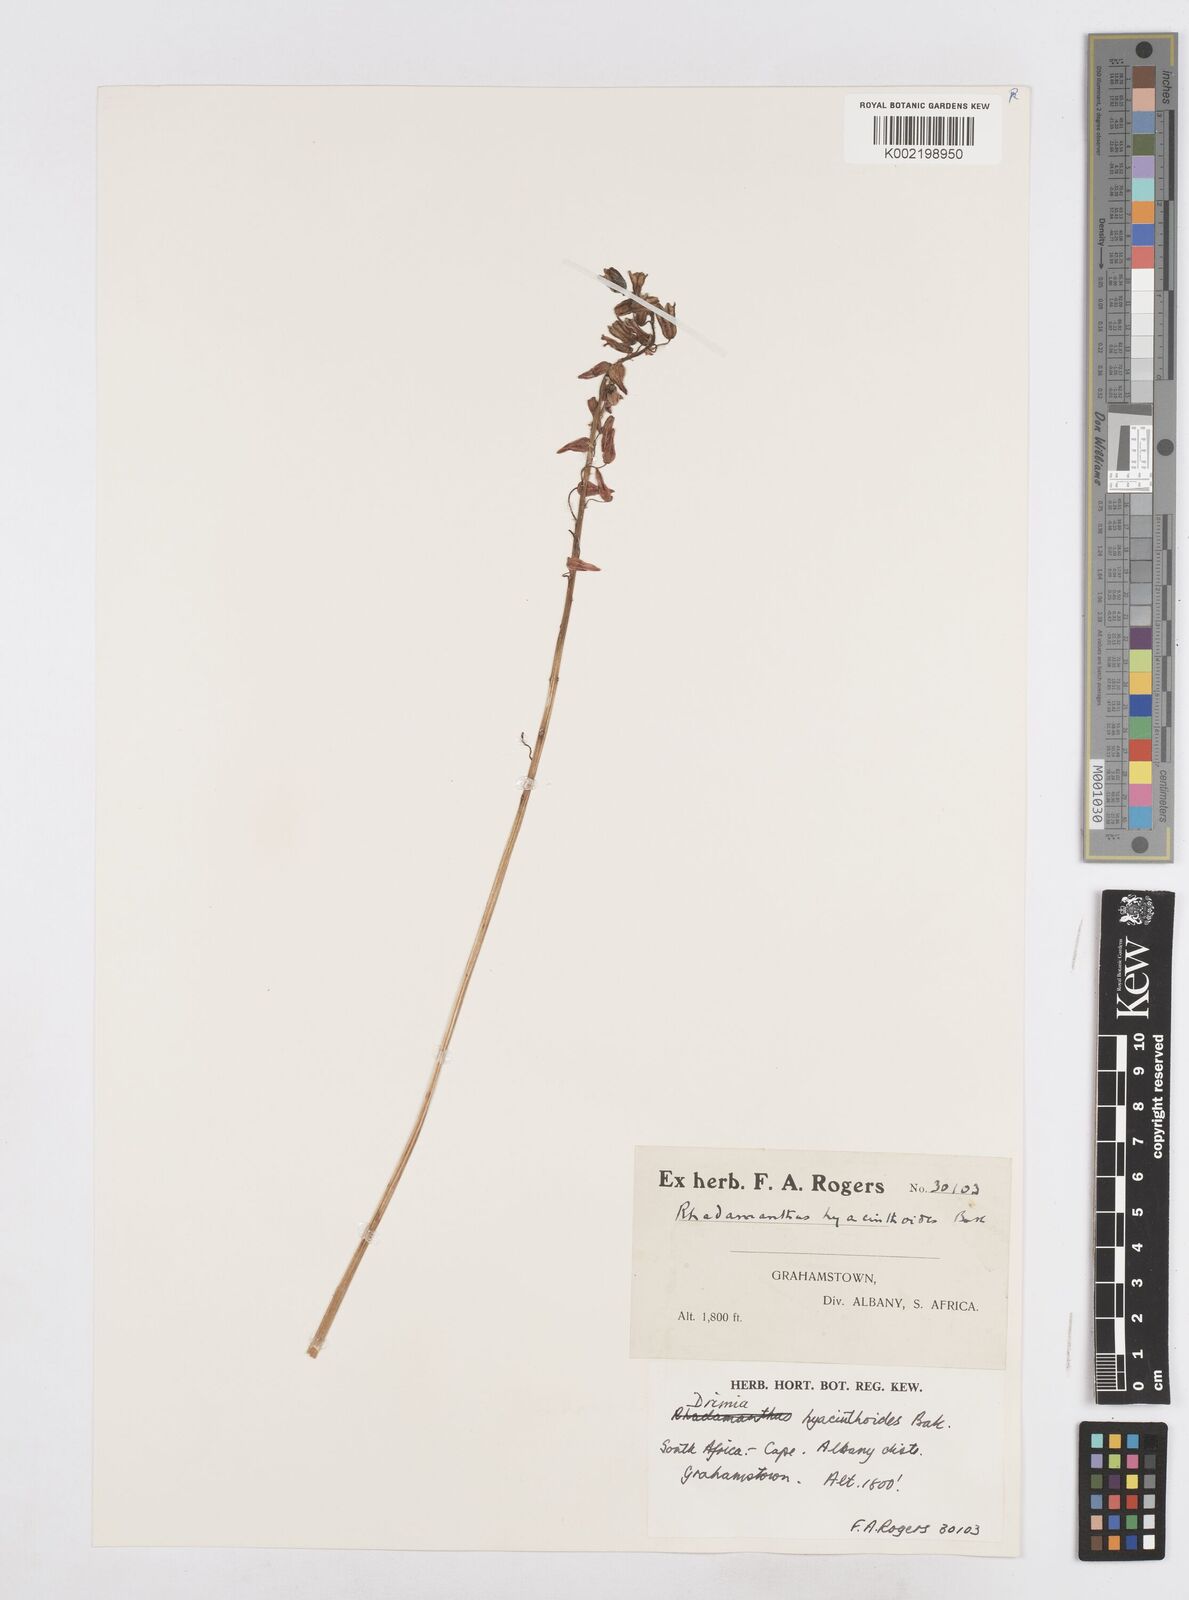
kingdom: Plantae
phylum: Tracheophyta
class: Liliopsida
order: Asparagales
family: Asparagaceae
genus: Drimia
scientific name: Drimia hyacinthoides
